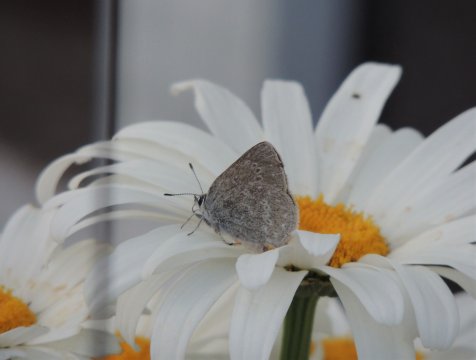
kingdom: Animalia
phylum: Arthropoda
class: Insecta
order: Lepidoptera
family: Lycaenidae
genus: Satyrium
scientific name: Satyrium fuliginosa
